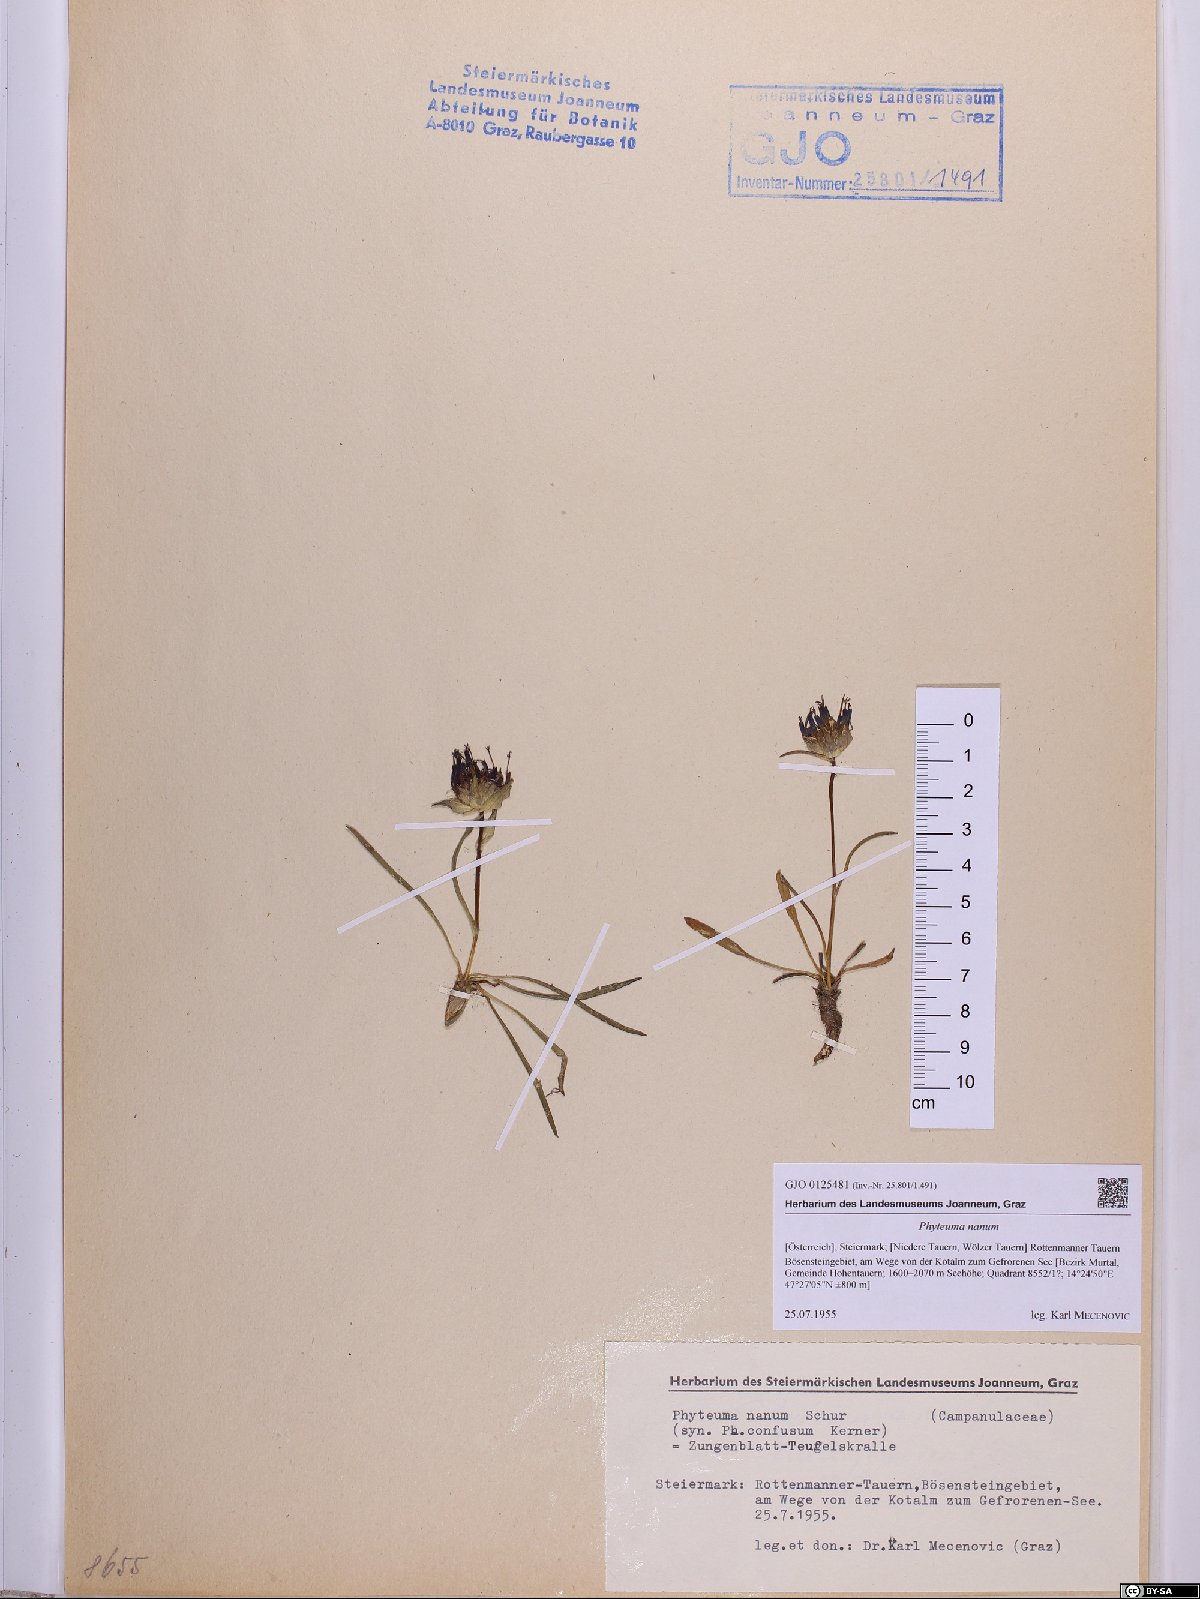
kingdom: Plantae
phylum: Tracheophyta
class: Magnoliopsida
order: Asterales
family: Campanulaceae
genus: Phyteuma
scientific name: Phyteuma globulariifolium
